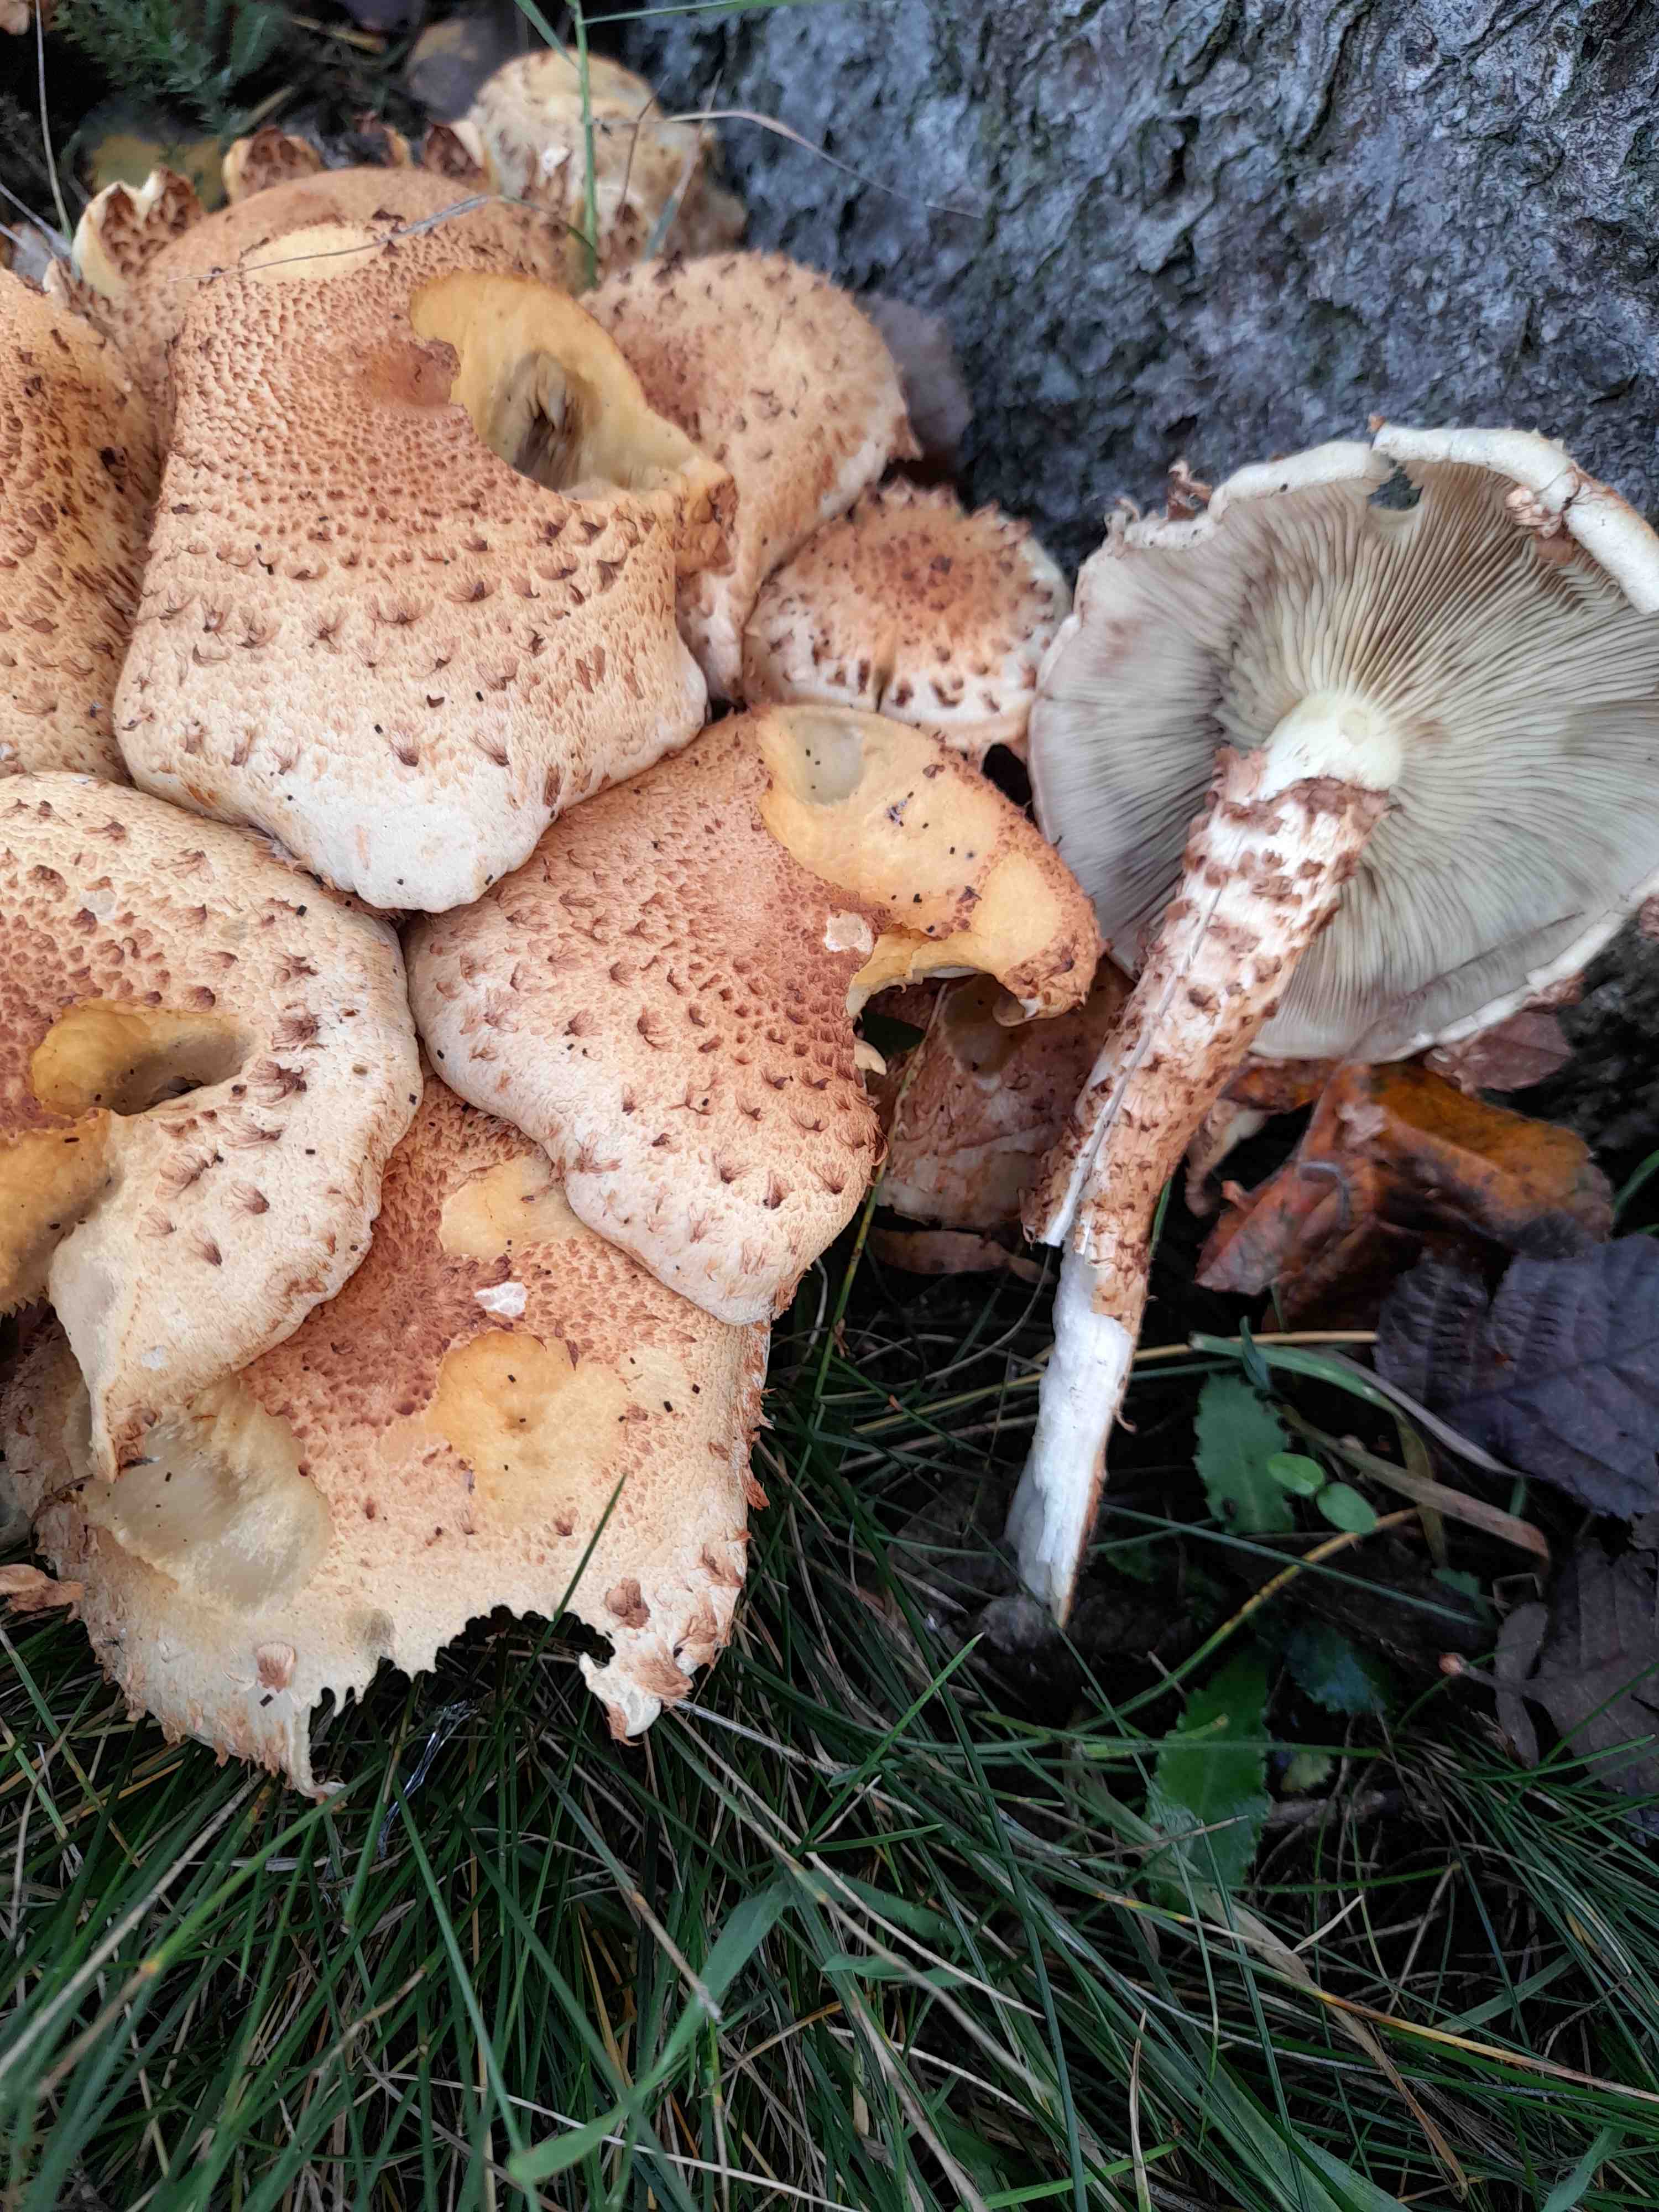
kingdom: Fungi
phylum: Basidiomycota
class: Agaricomycetes
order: Agaricales
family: Strophariaceae
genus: Pholiota
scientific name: Pholiota squarrosa
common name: krumskællet skælhat
